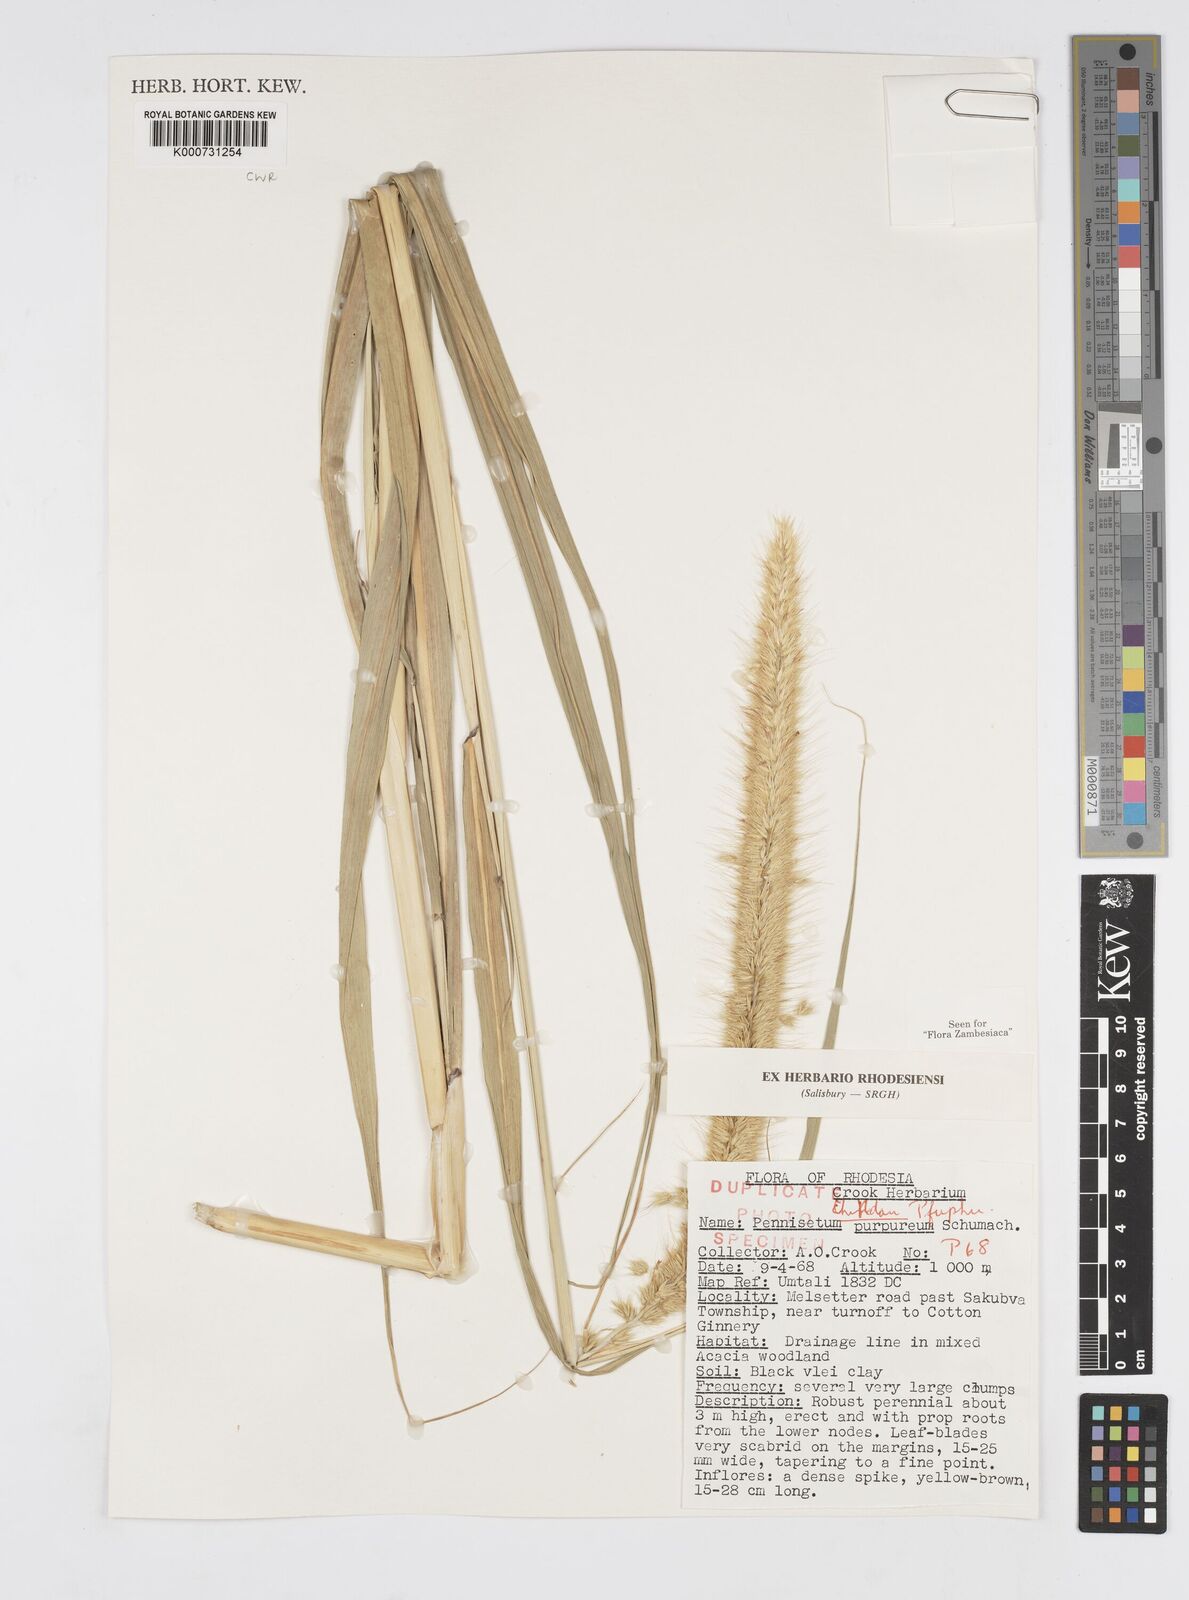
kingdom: Plantae
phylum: Tracheophyta
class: Liliopsida
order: Poales
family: Poaceae
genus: Cenchrus
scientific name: Cenchrus purpureus
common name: Elephant grass
